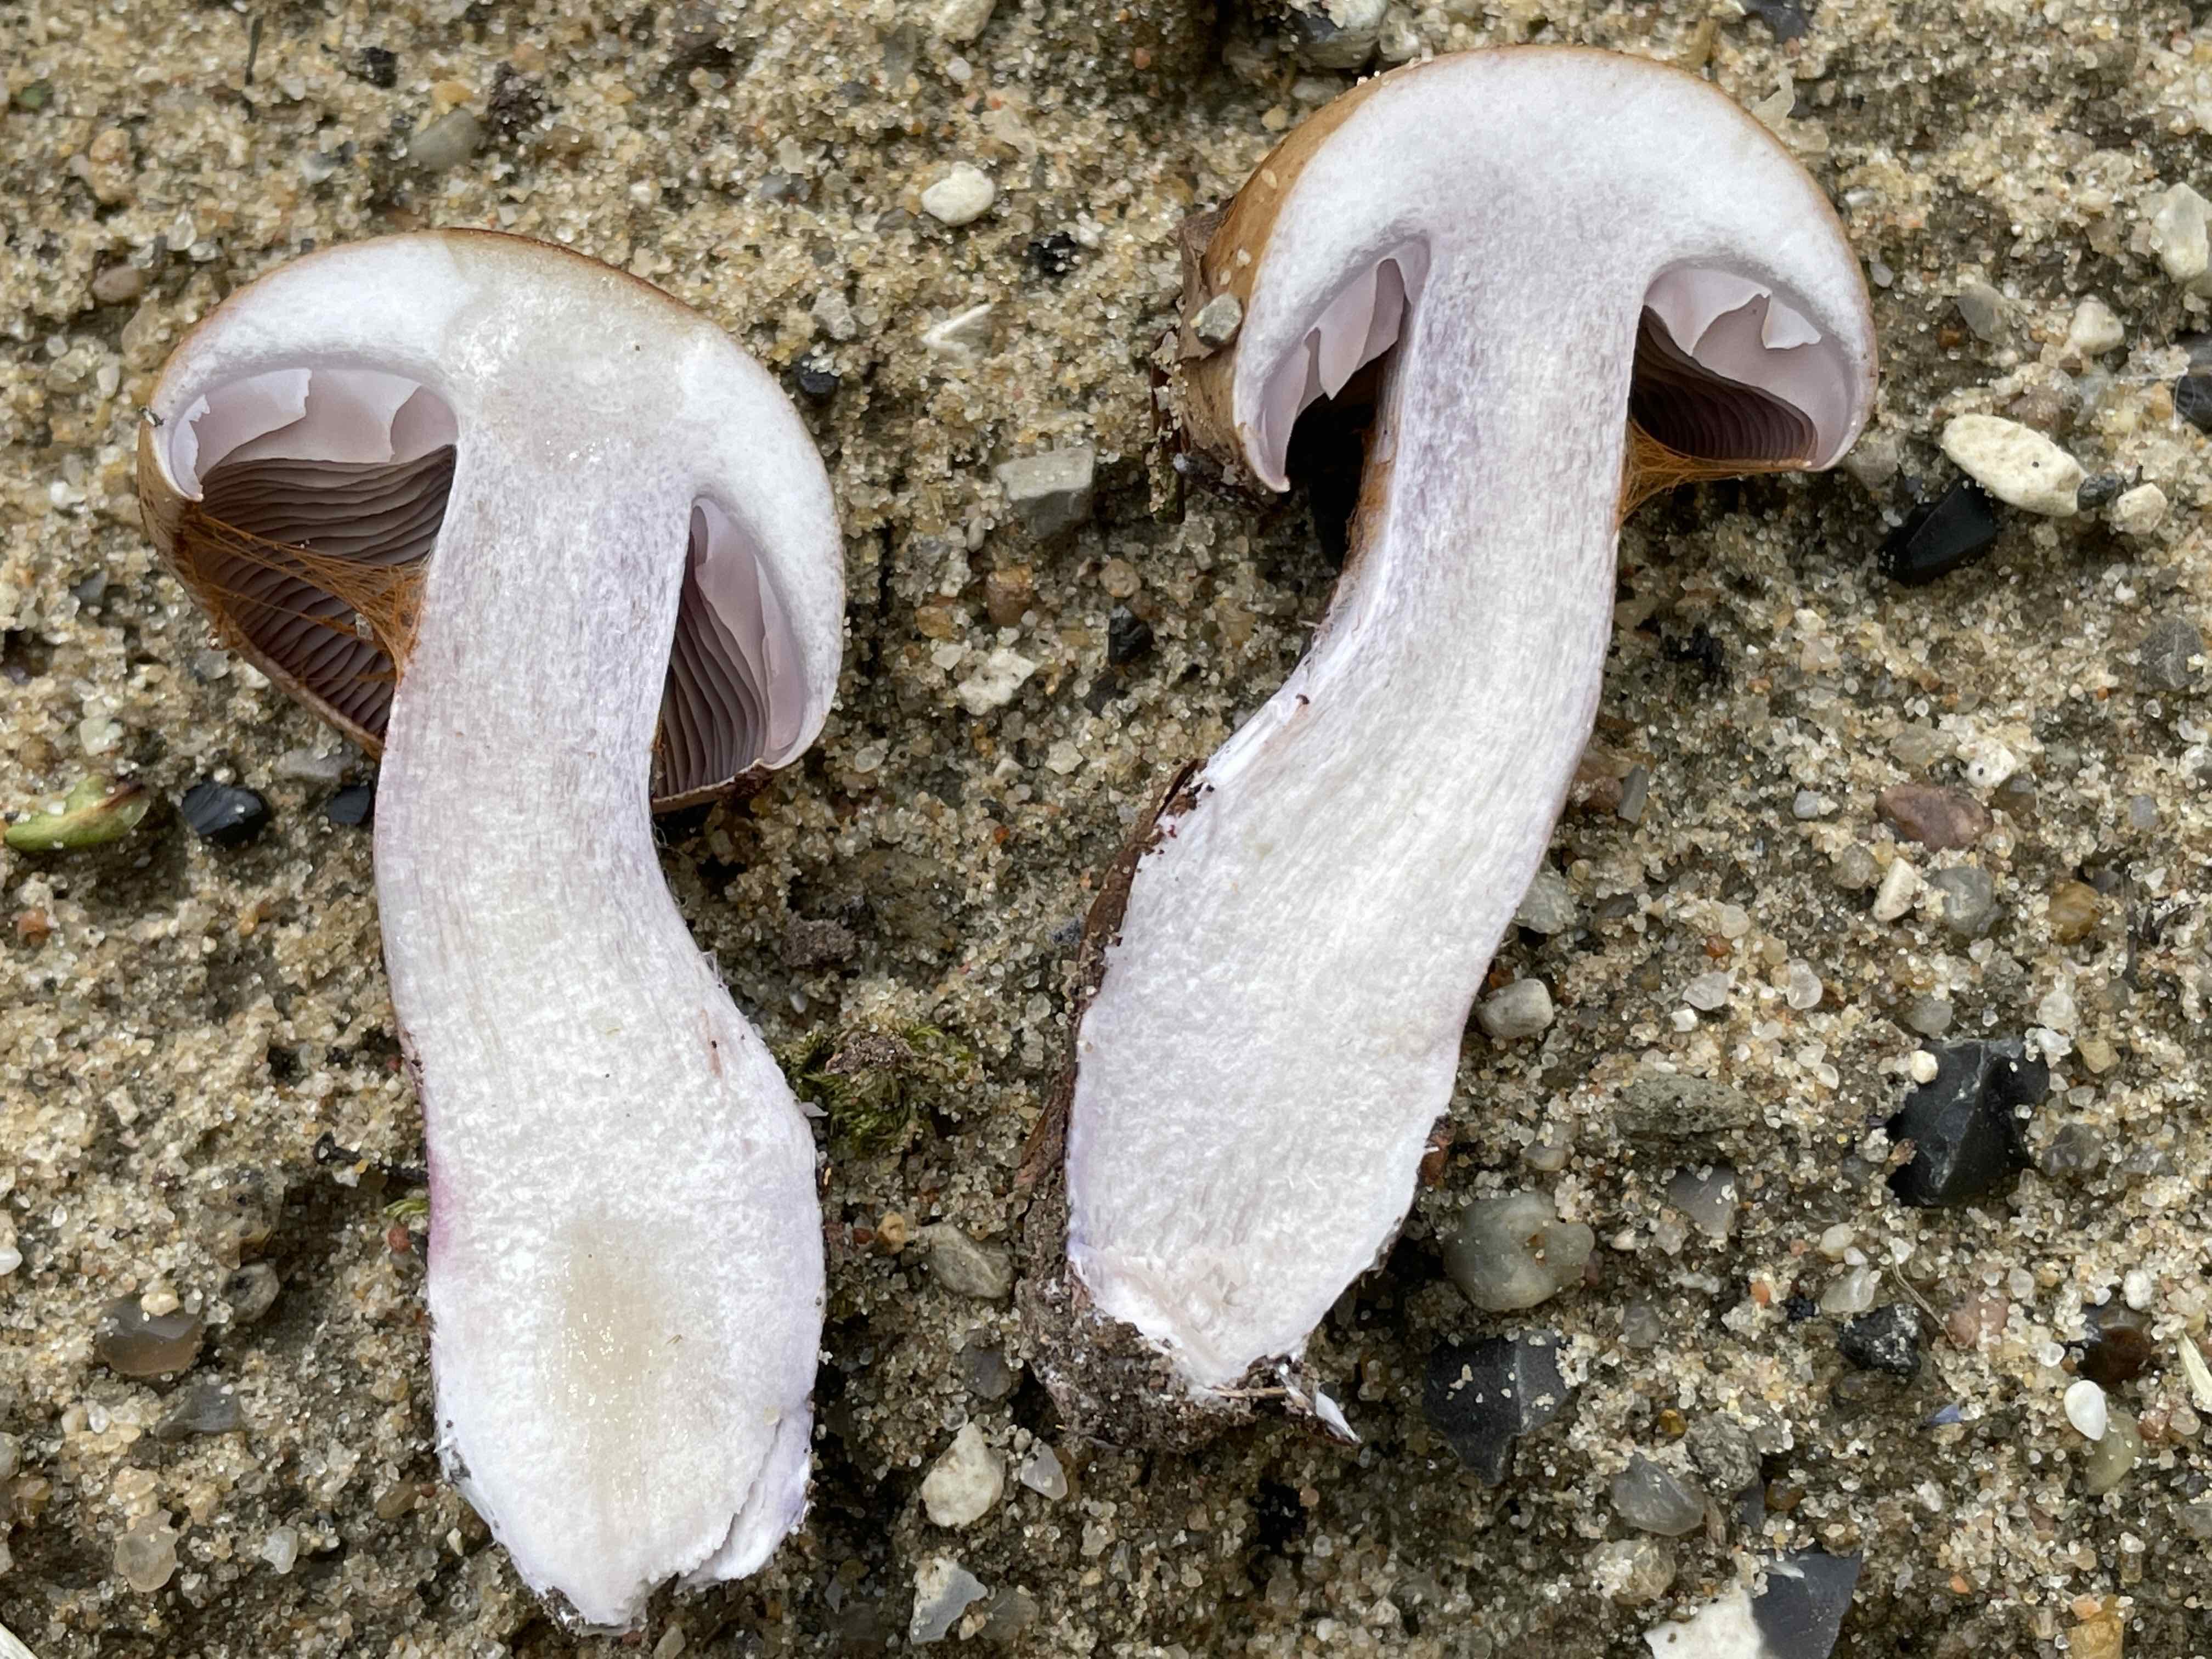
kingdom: Fungi
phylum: Basidiomycota
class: Agaricomycetes
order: Agaricales
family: Cortinariaceae
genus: Thaxterogaster
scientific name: Thaxterogaster subpurpurascens
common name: mørkblånende slørhat
